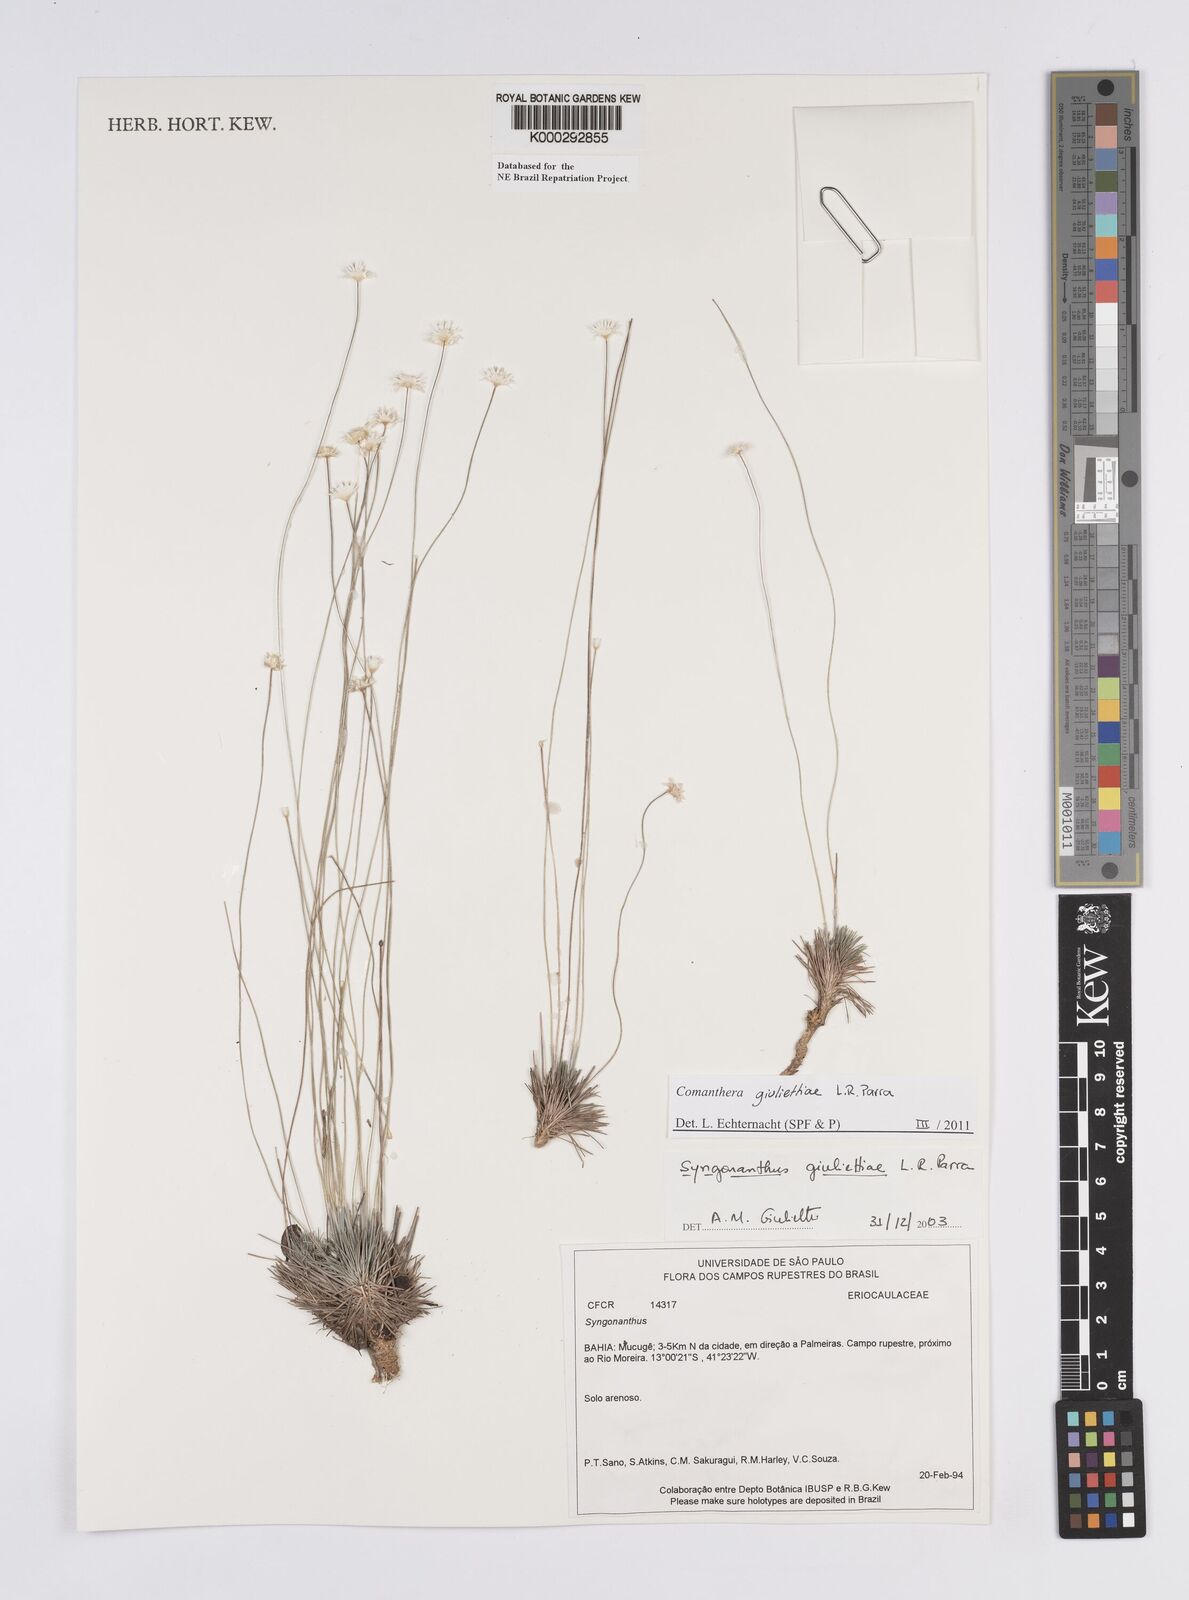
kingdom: Plantae
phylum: Tracheophyta
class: Liliopsida
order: Poales
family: Eriocaulaceae
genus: Syngonanthus
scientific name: Syngonanthus
